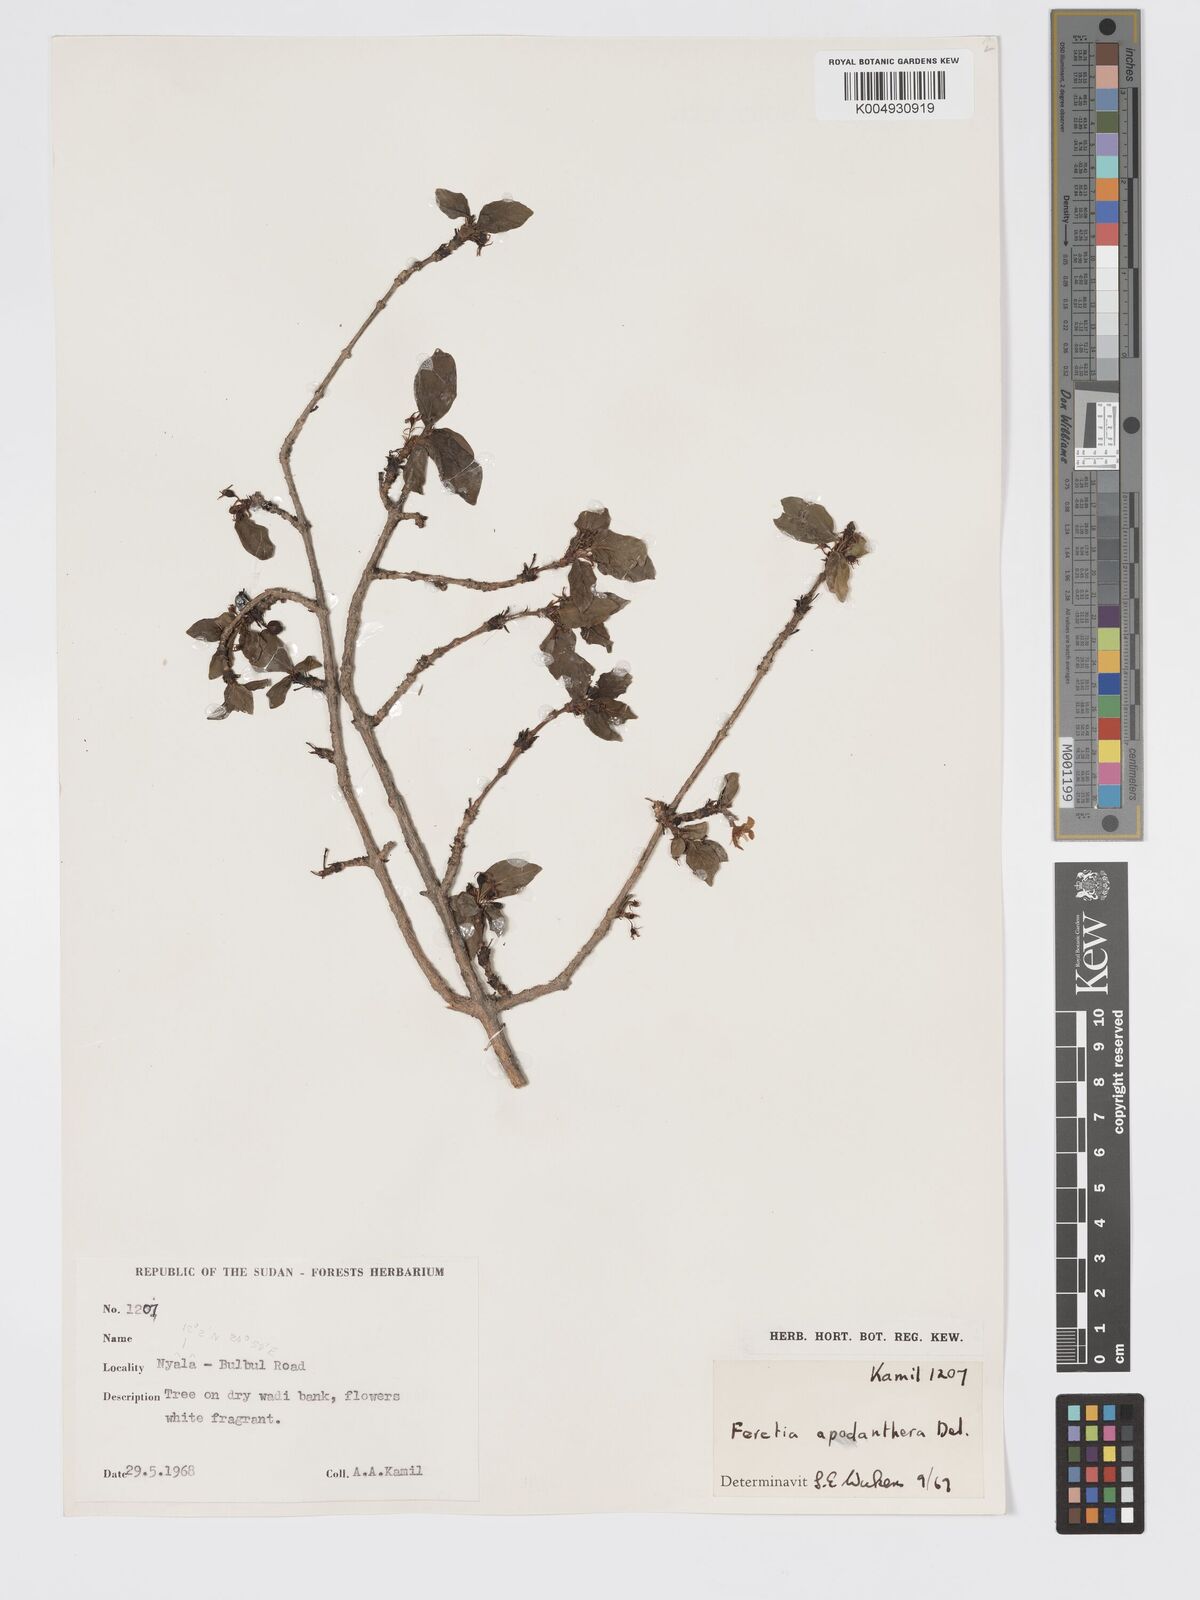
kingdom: Plantae
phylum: Tracheophyta
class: Magnoliopsida
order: Gentianales
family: Rubiaceae
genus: Feretia
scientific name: Feretia apodanthera
